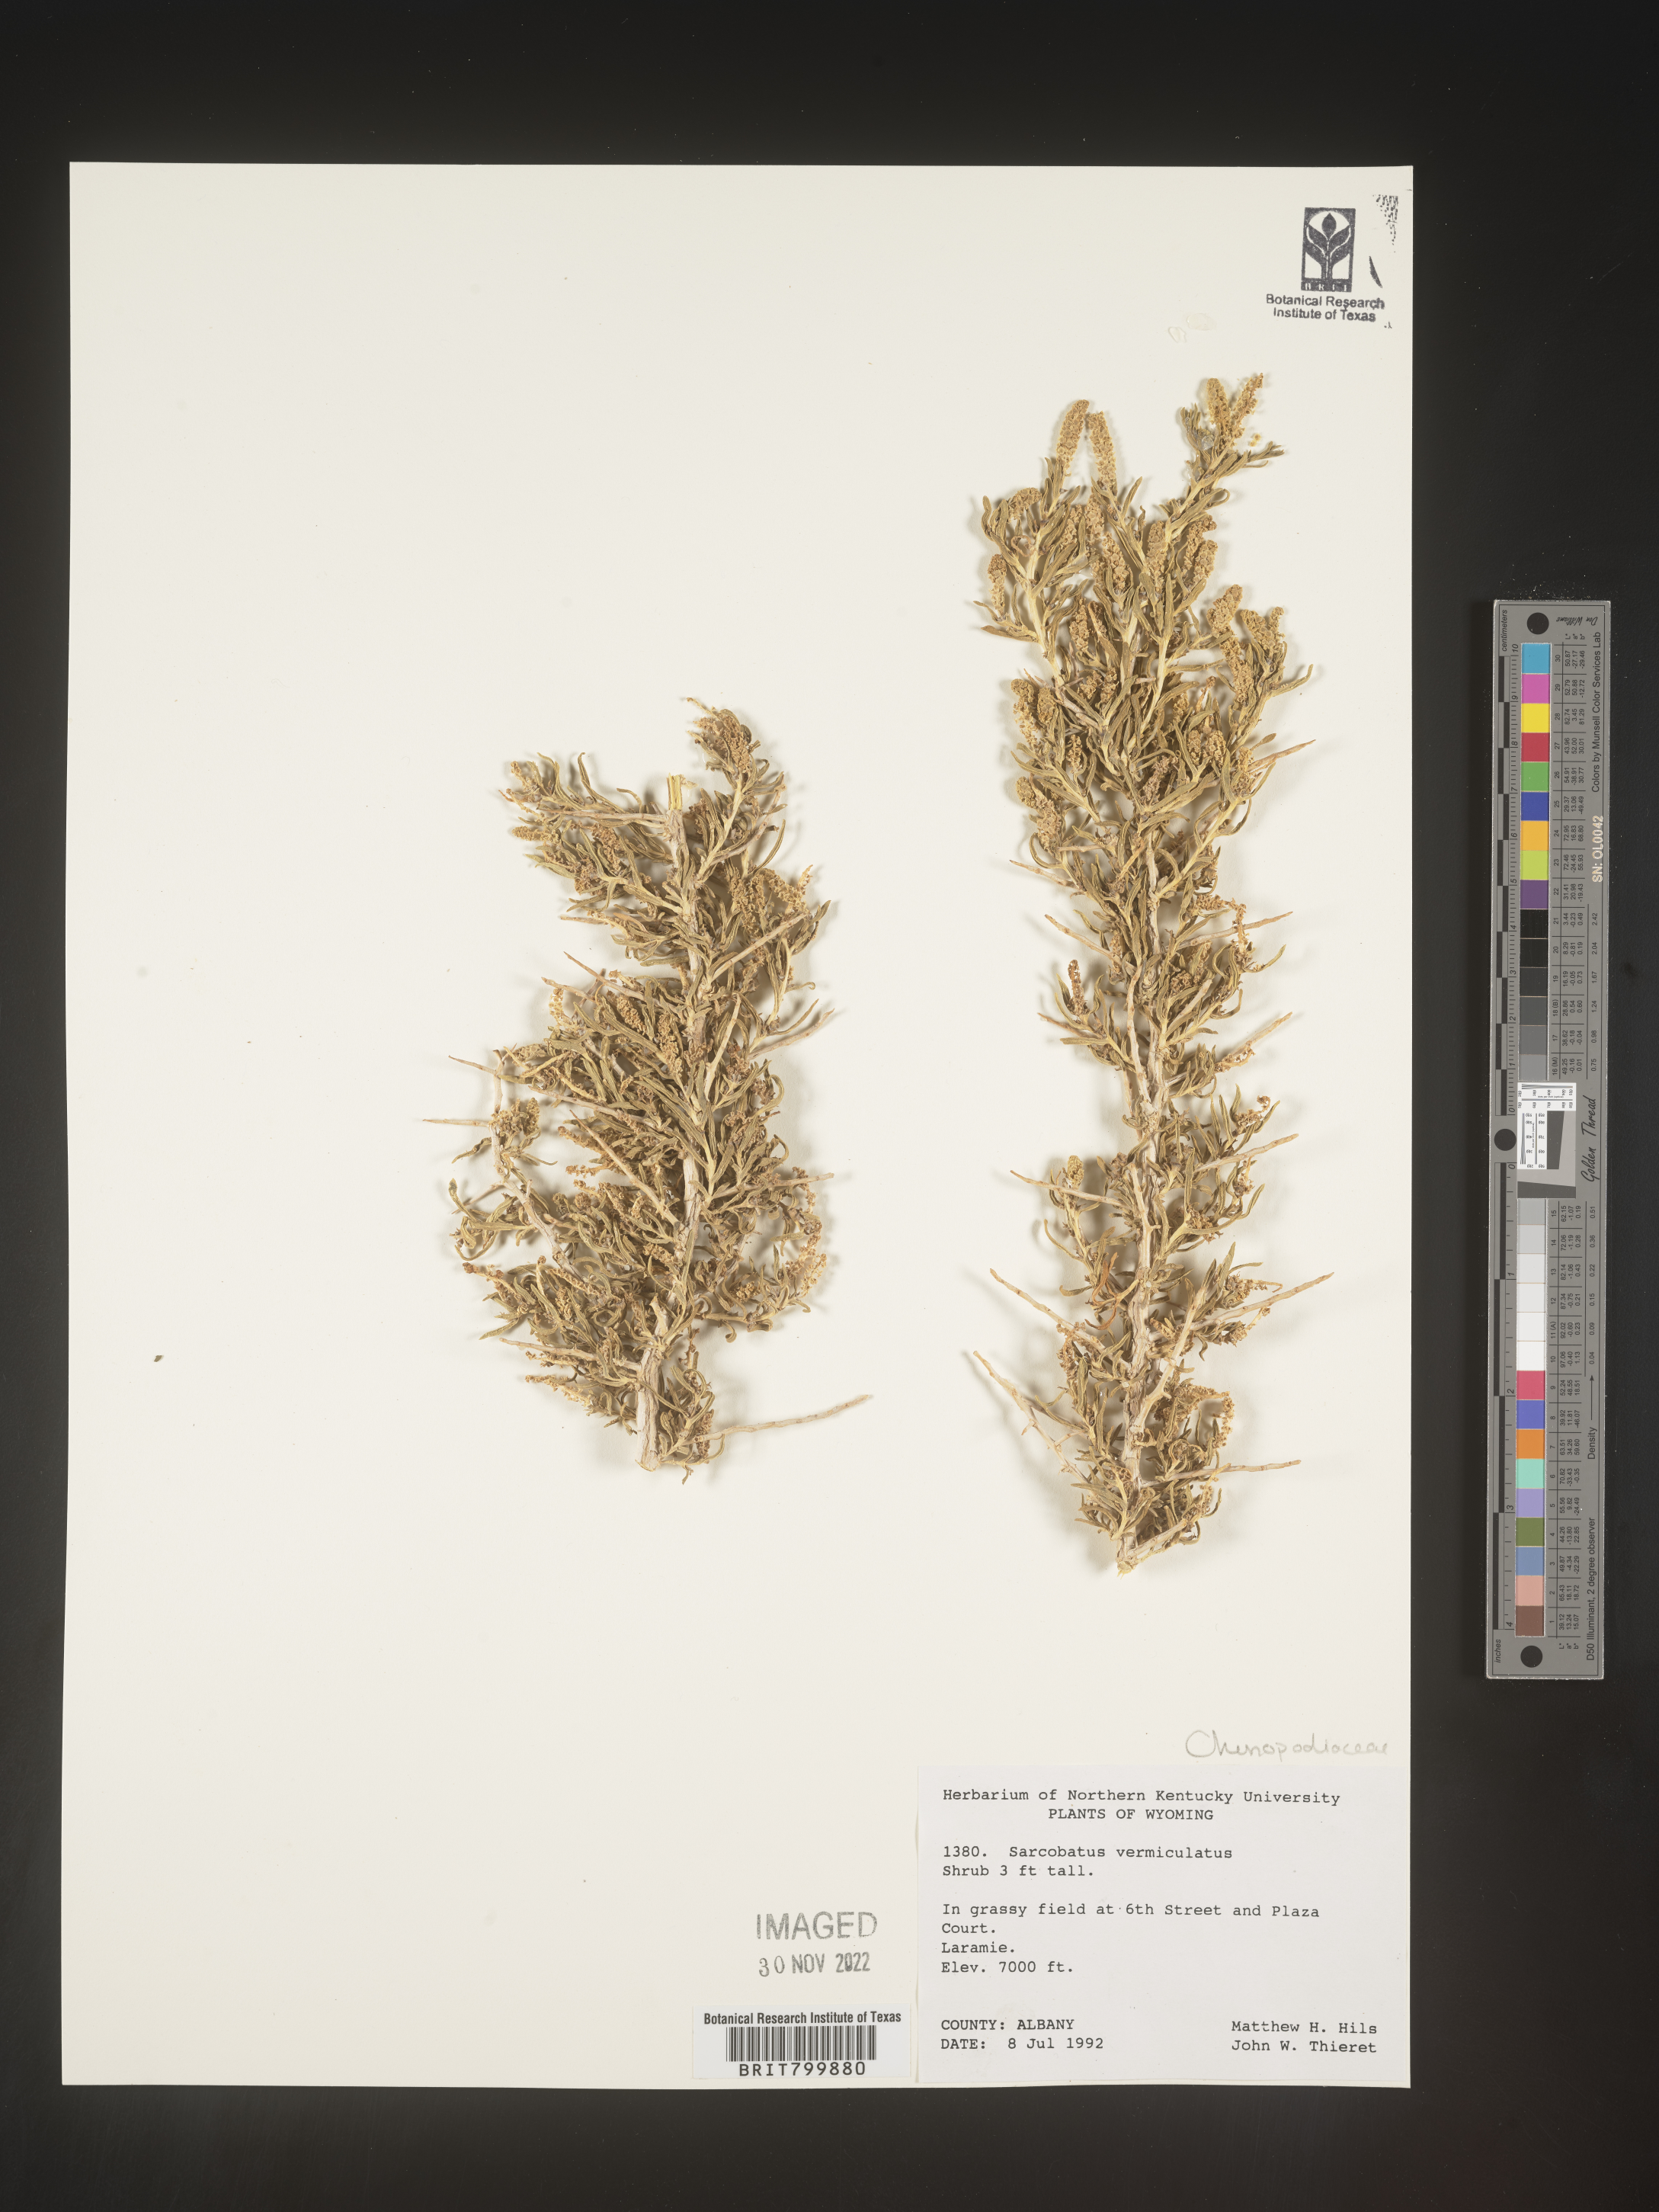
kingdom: Plantae
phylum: Tracheophyta
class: Magnoliopsida
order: Caryophyllales
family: Sarcobataceae
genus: Sarcobatus
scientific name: Sarcobatus vermiculatus
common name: Greasewood
